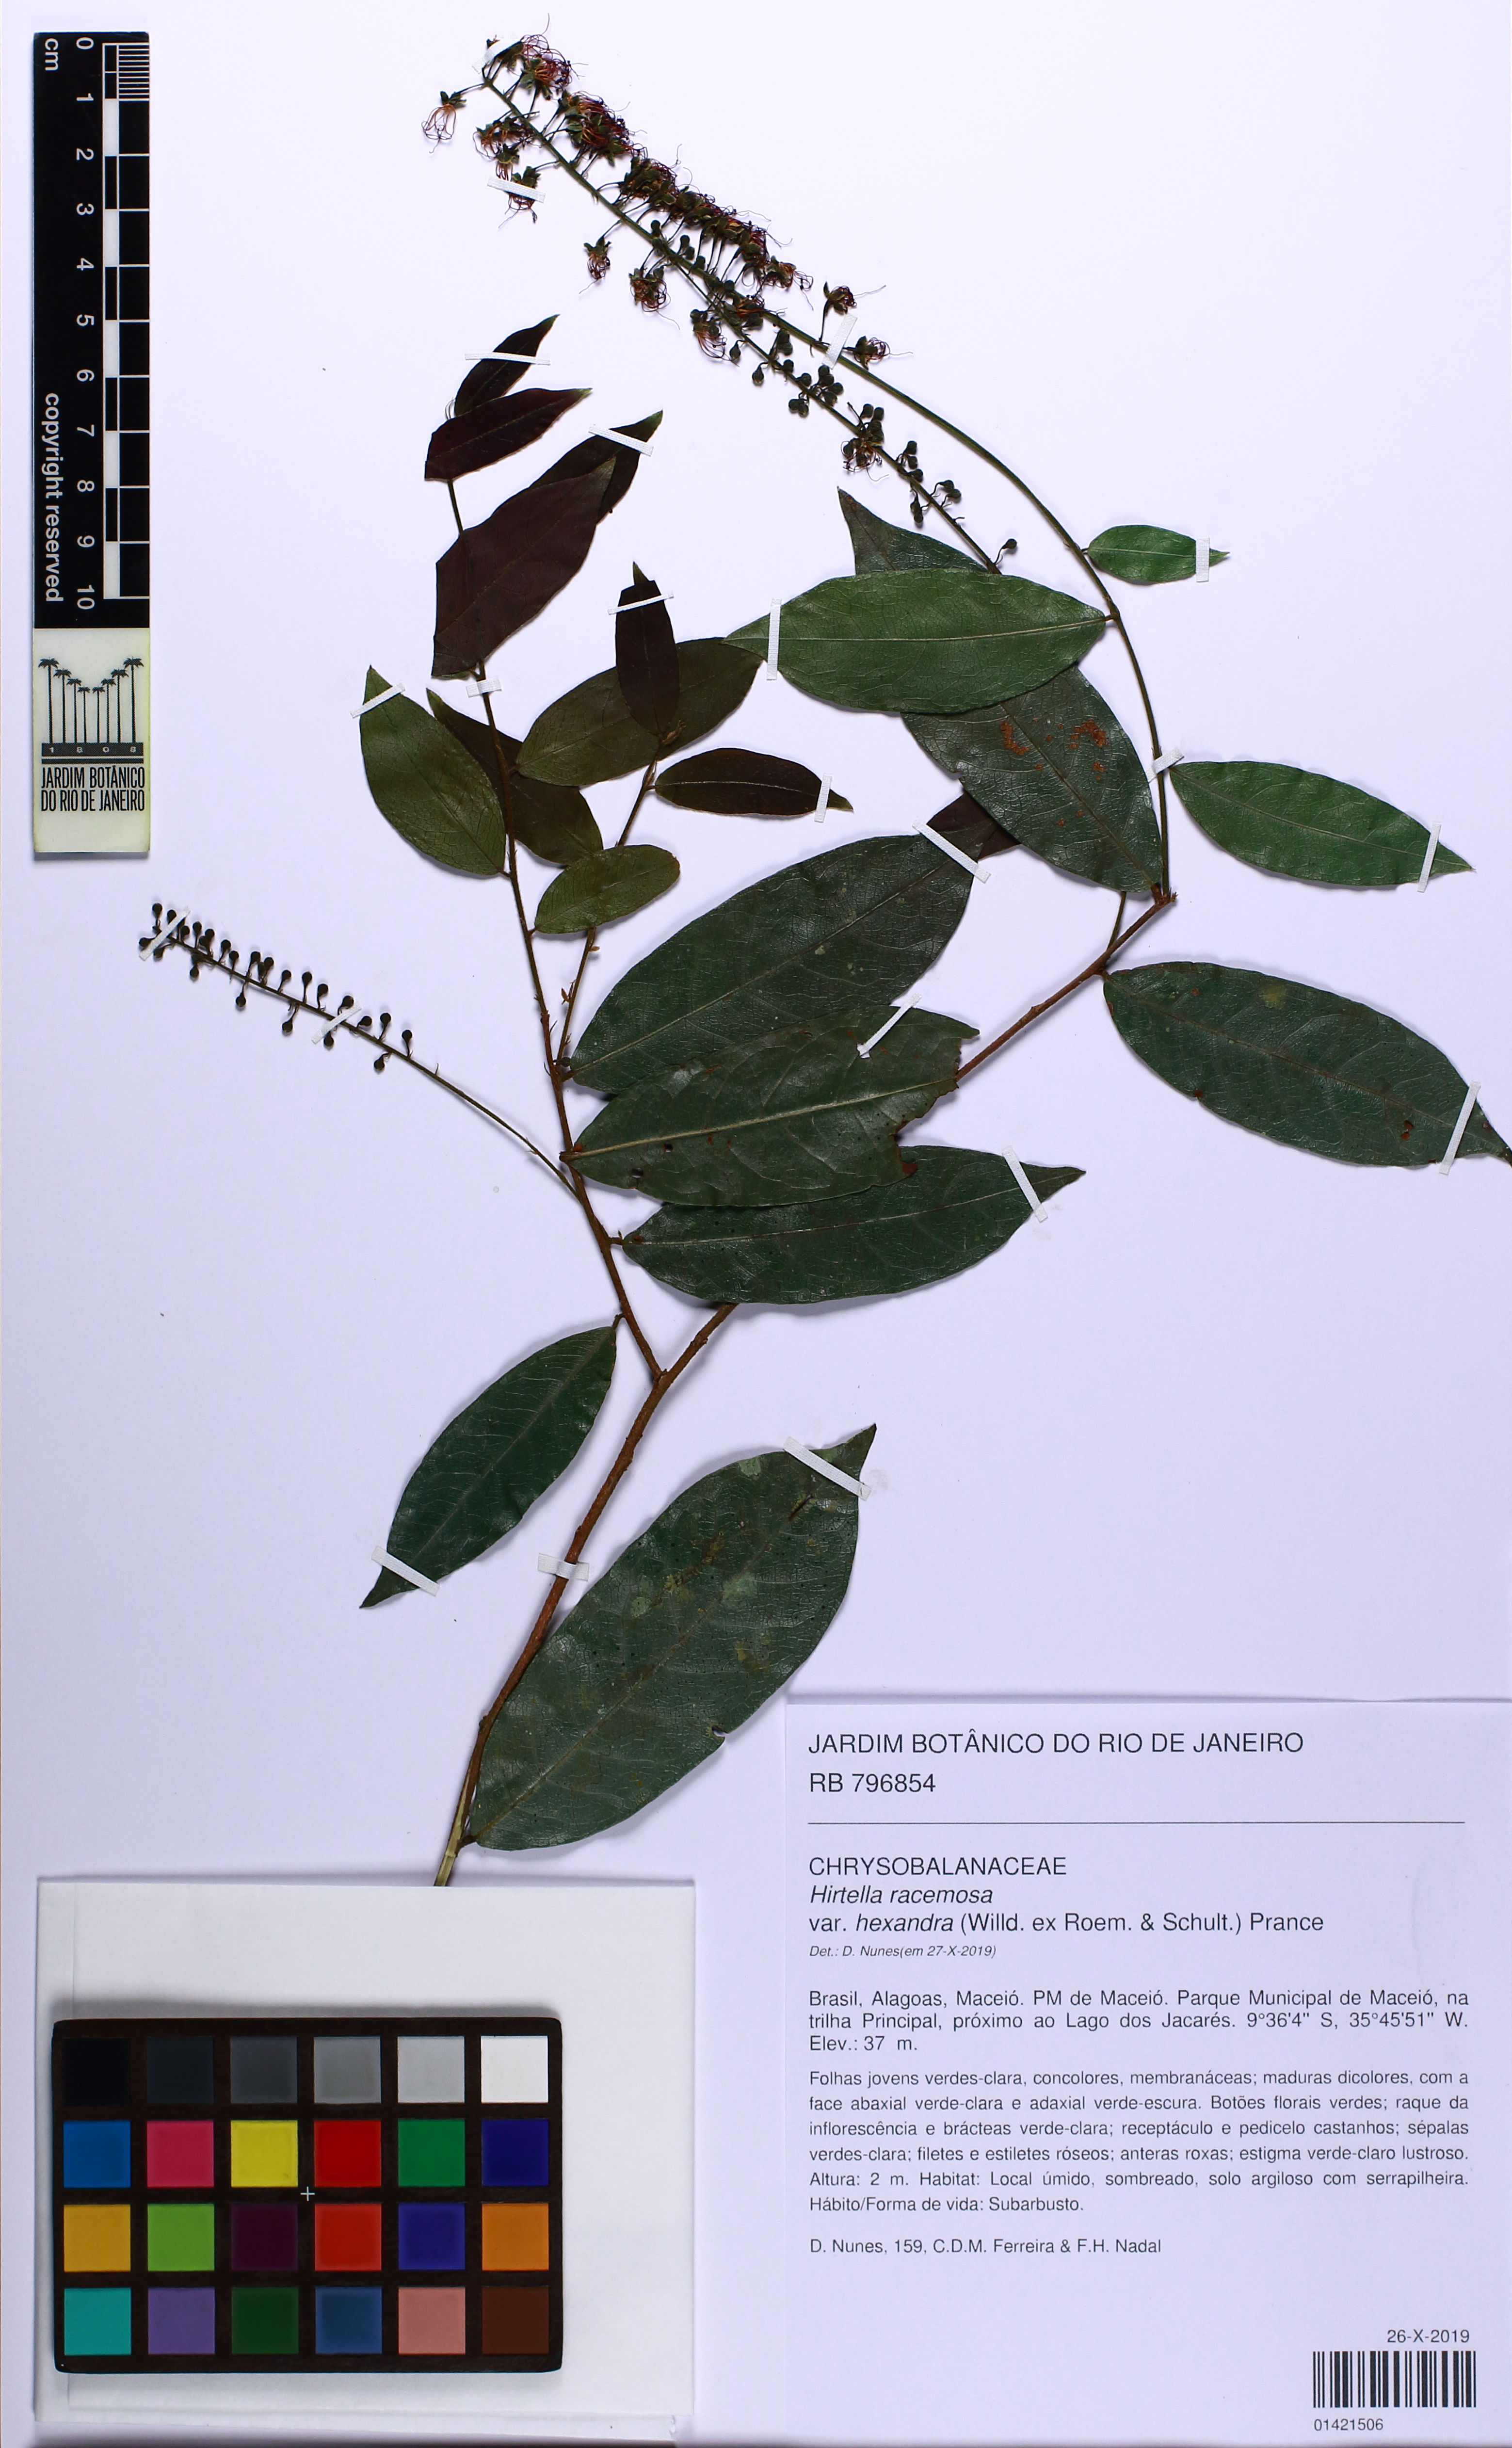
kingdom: Plantae
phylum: Tracheophyta
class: Magnoliopsida
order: Malpighiales
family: Chrysobalanaceae
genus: Hirtella
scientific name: Hirtella racemosa
